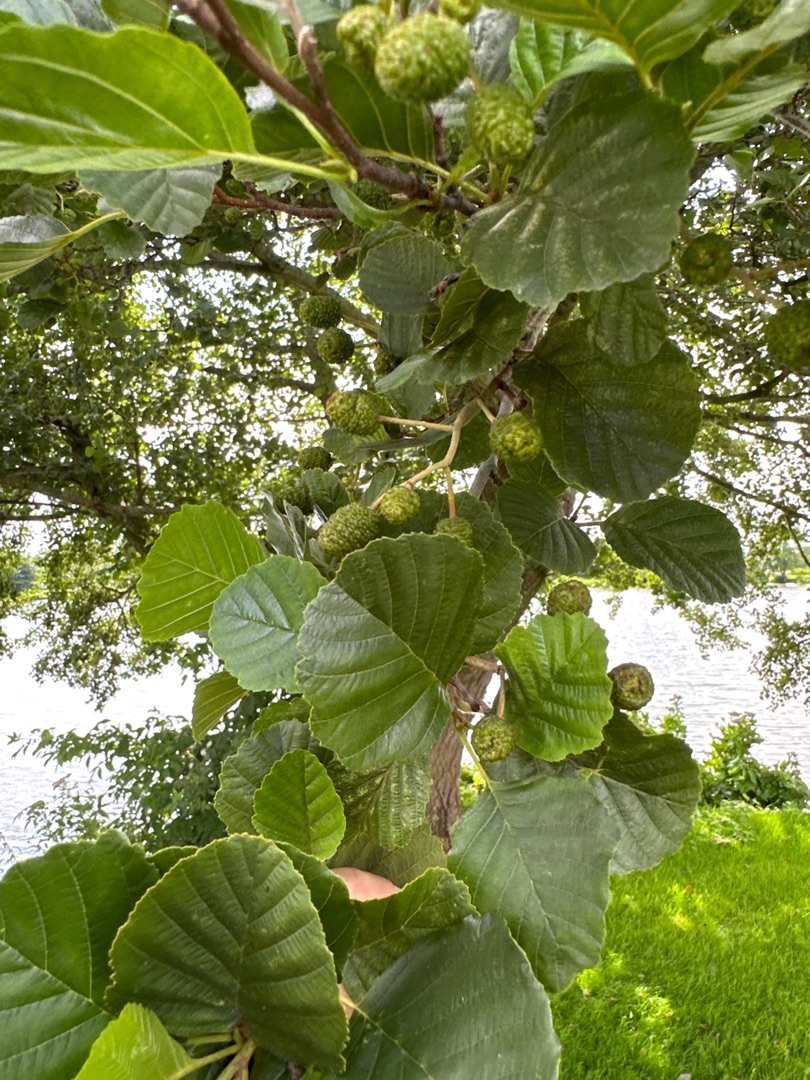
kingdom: Plantae
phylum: Tracheophyta
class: Magnoliopsida
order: Fagales
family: Betulaceae
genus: Alnus
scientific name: Alnus glutinosa
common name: Rød-el
